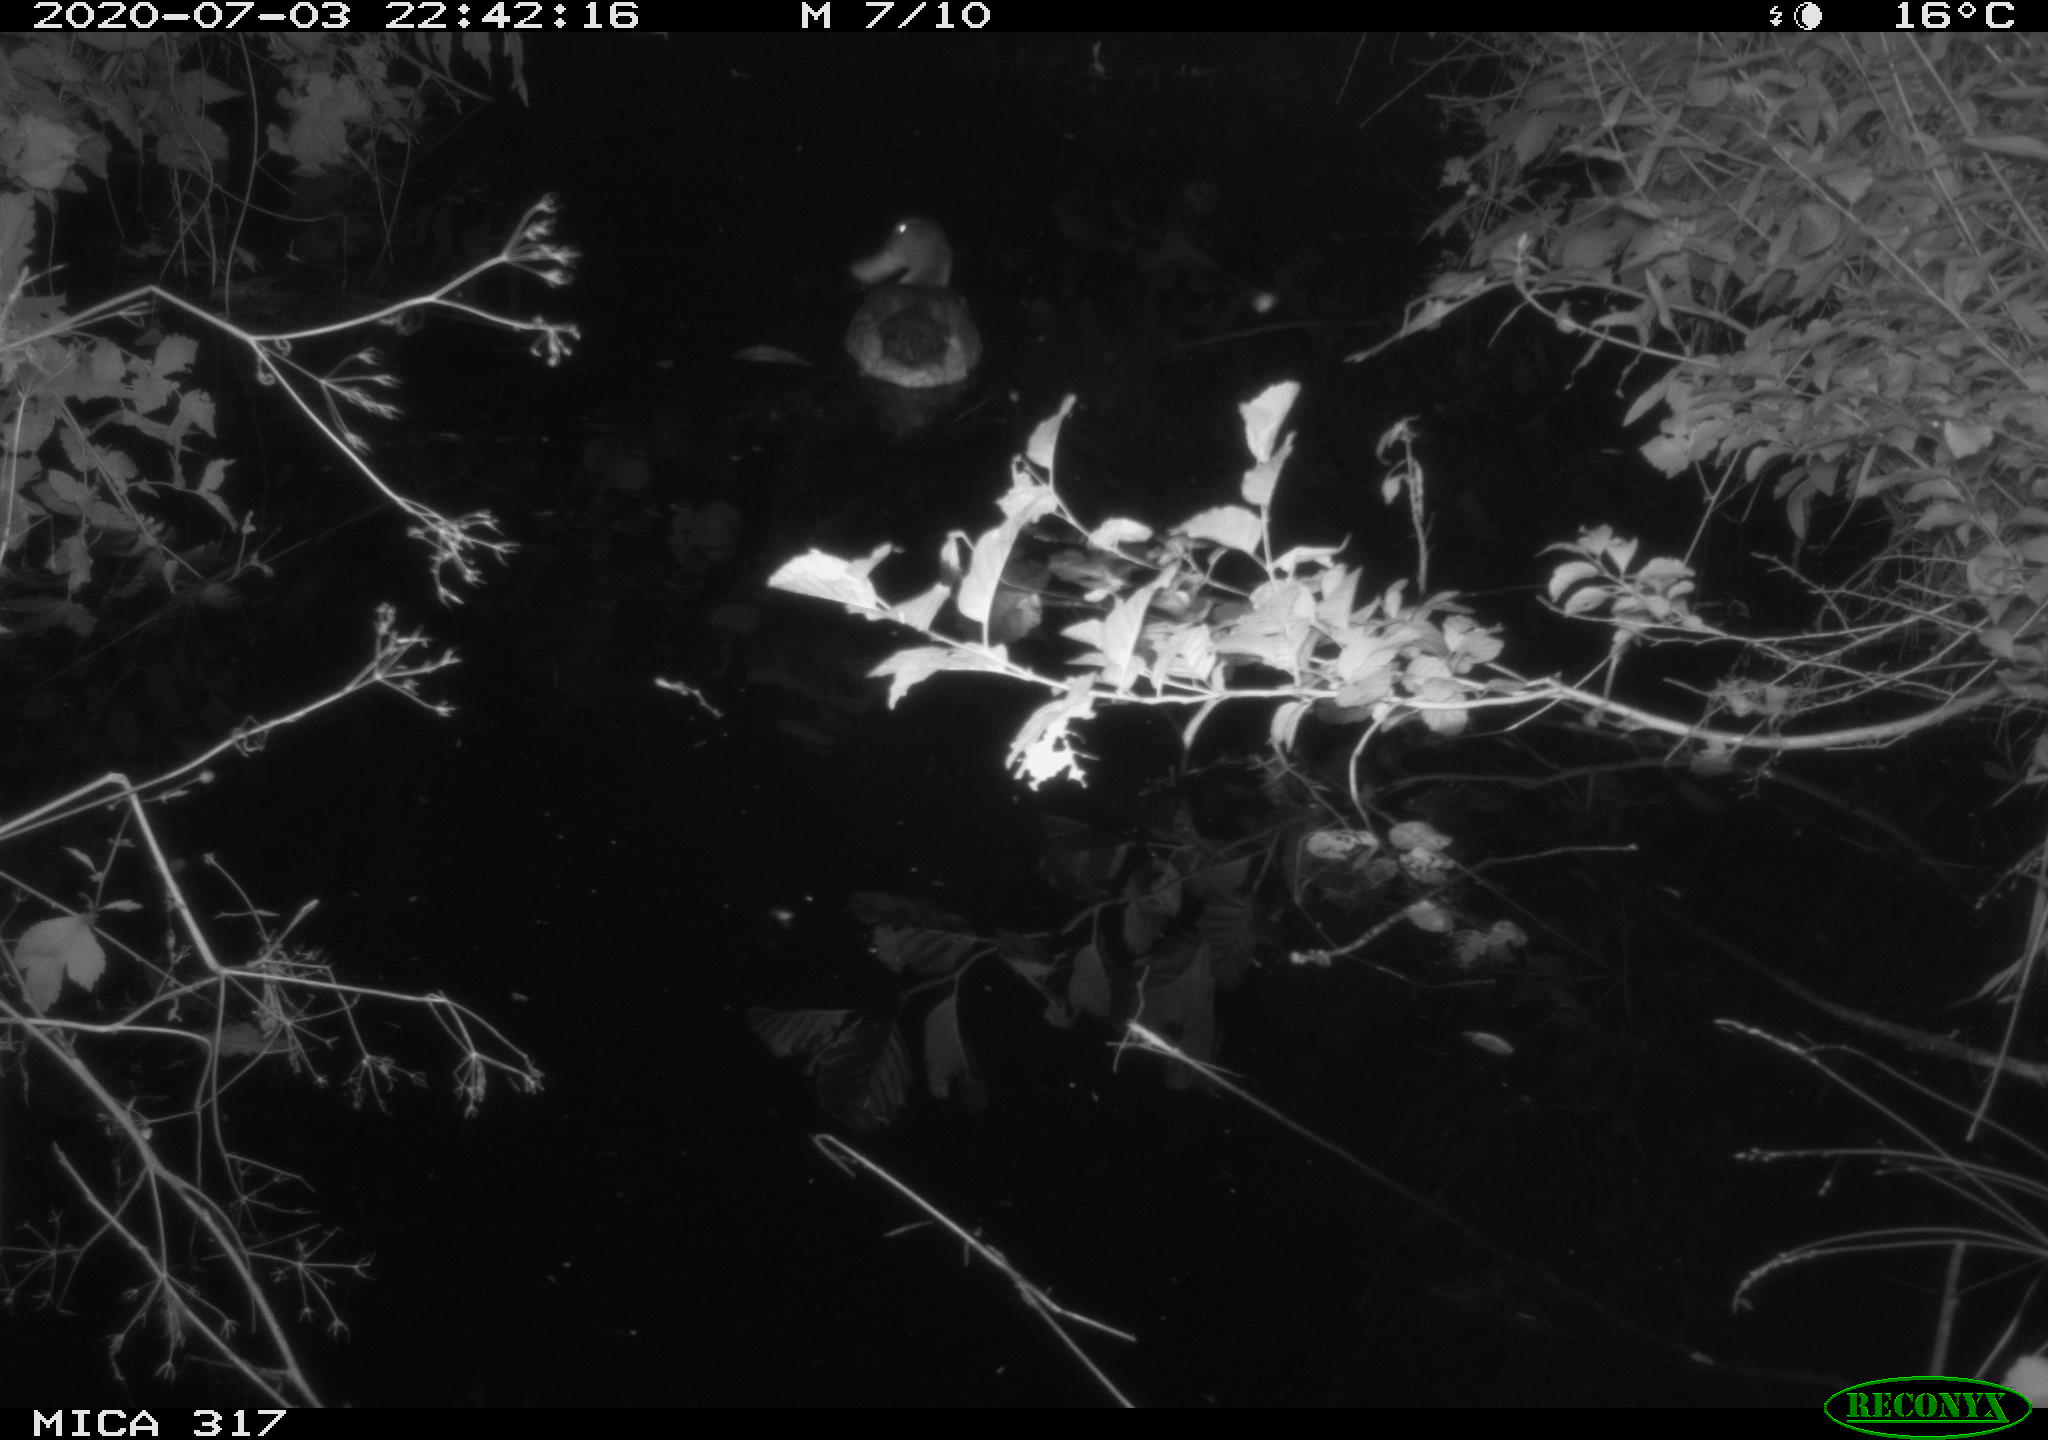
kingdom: Animalia
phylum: Chordata
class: Aves
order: Anseriformes
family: Anatidae
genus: Anas
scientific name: Anas platyrhynchos
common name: Mallard
